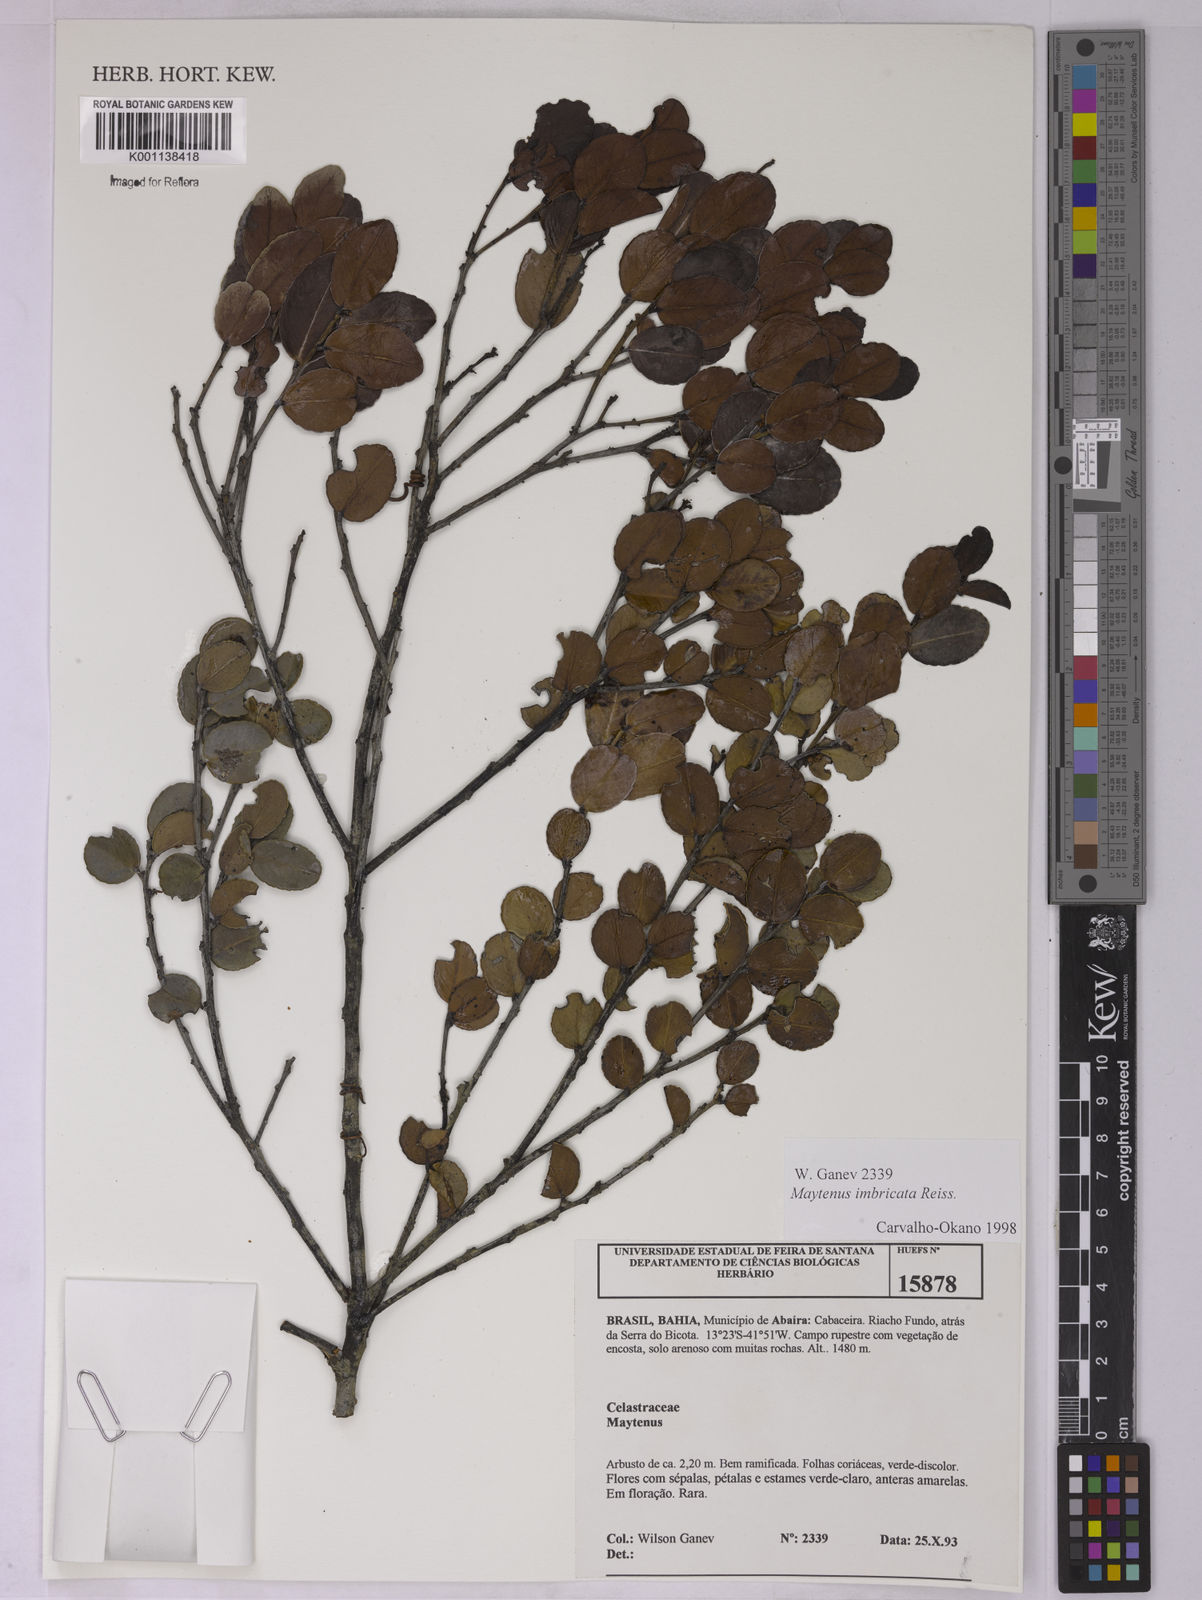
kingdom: Plantae
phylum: Tracheophyta
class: Magnoliopsida
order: Celastrales
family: Celastraceae
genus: Monteverdia
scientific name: Monteverdia imbricata
